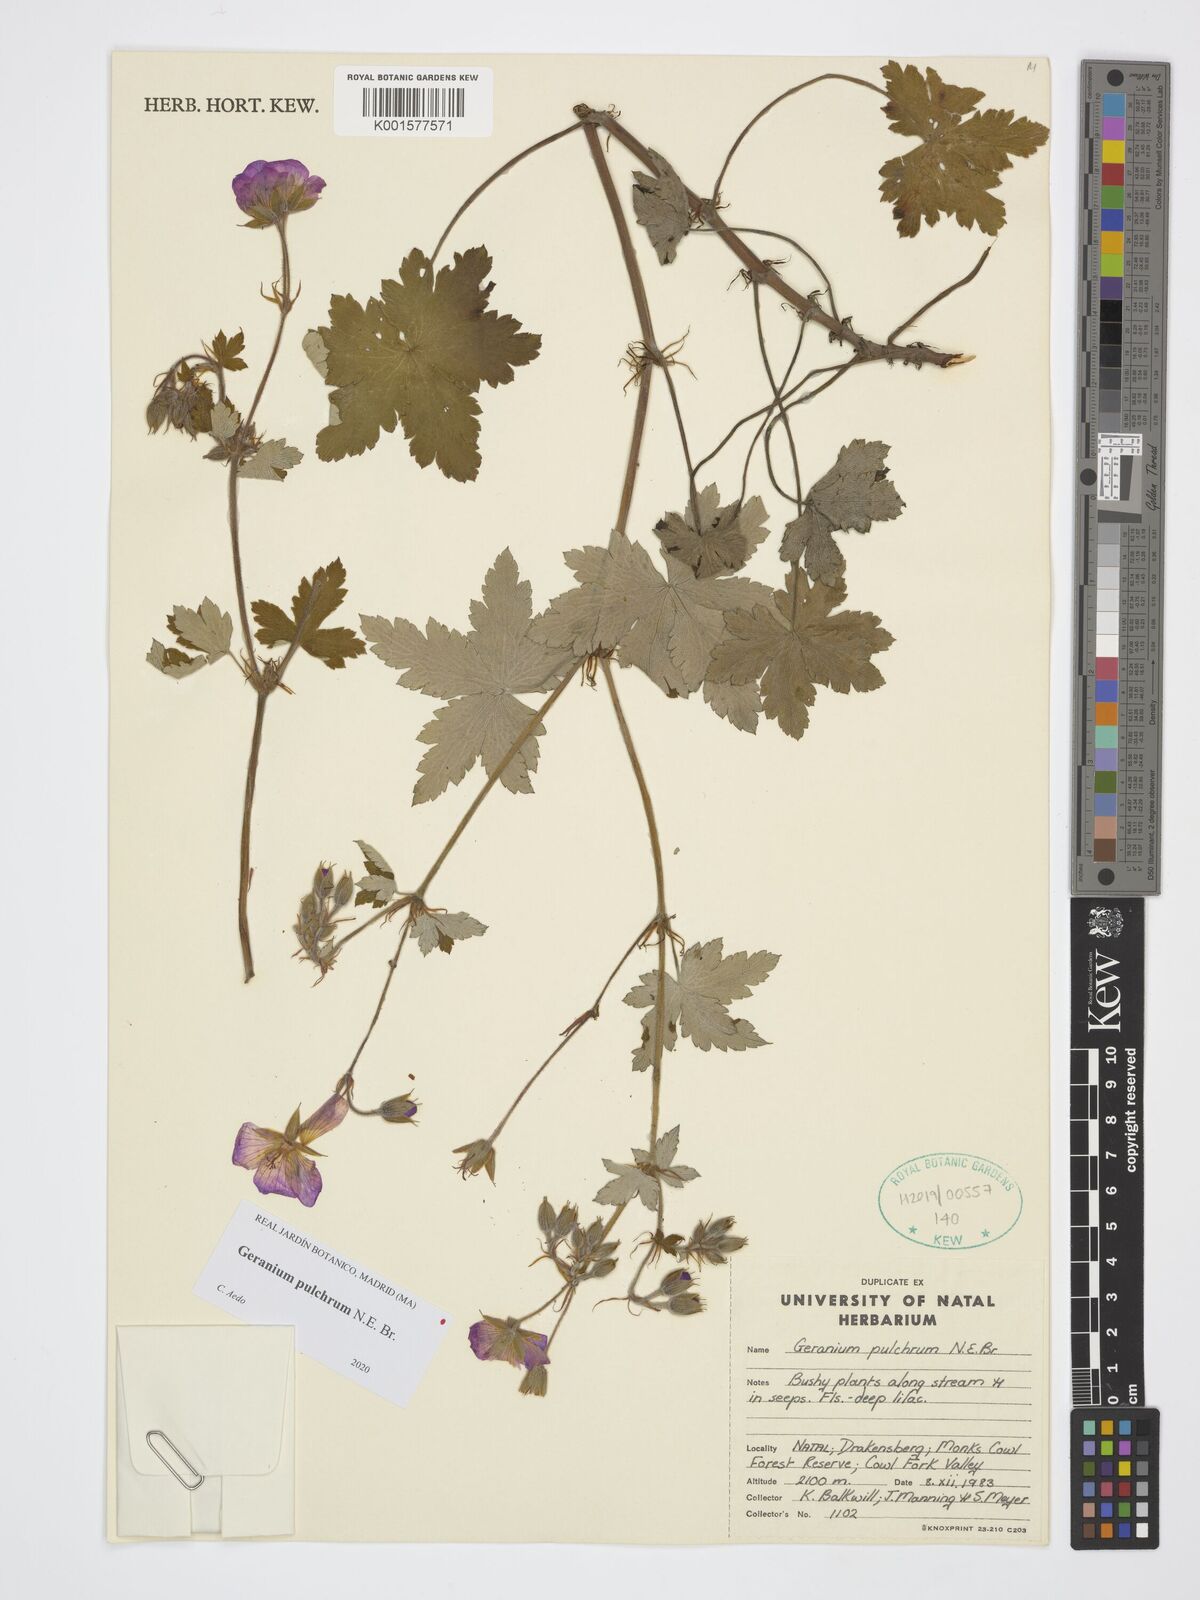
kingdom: Plantae
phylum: Tracheophyta
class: Magnoliopsida
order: Geraniales
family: Geraniaceae
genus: Geranium
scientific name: Geranium pulchrum
